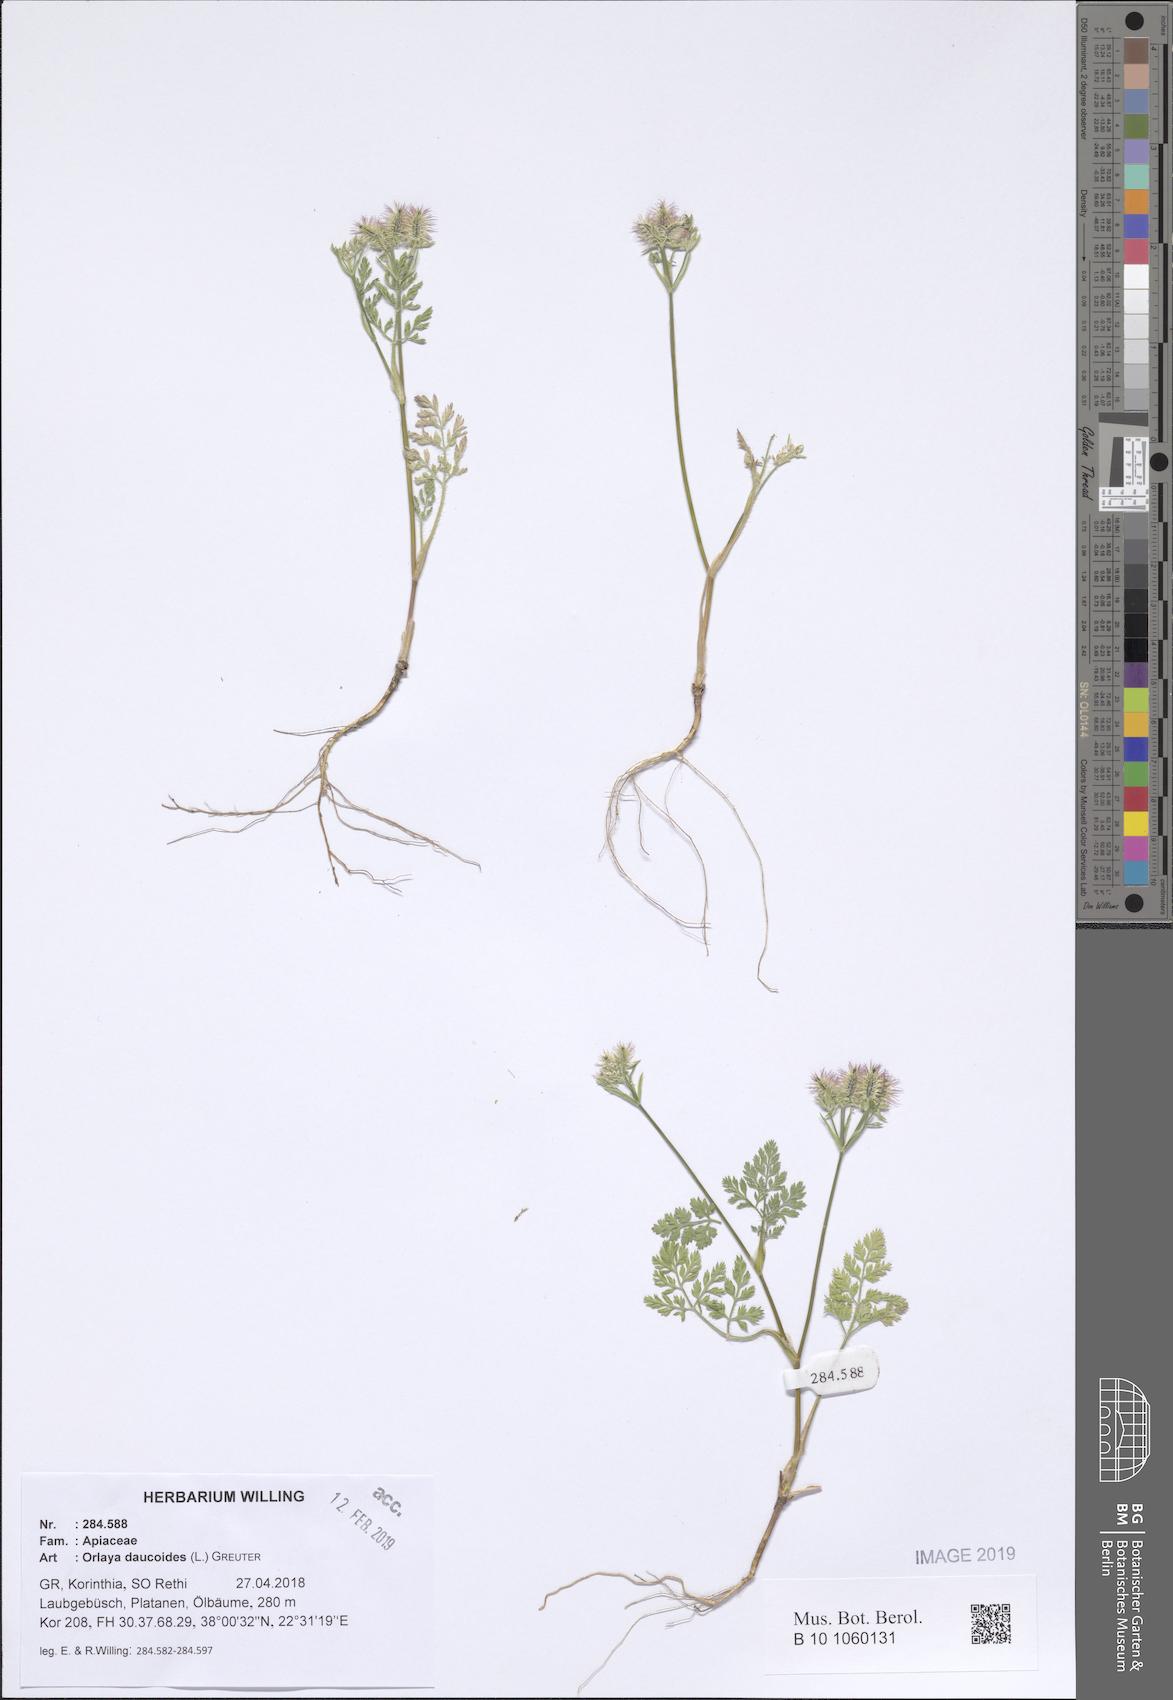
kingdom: Plantae
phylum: Tracheophyta
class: Magnoliopsida
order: Apiales
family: Apiaceae
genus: Orlaya
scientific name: Orlaya daucoides
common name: Flat-fruit orlaya
